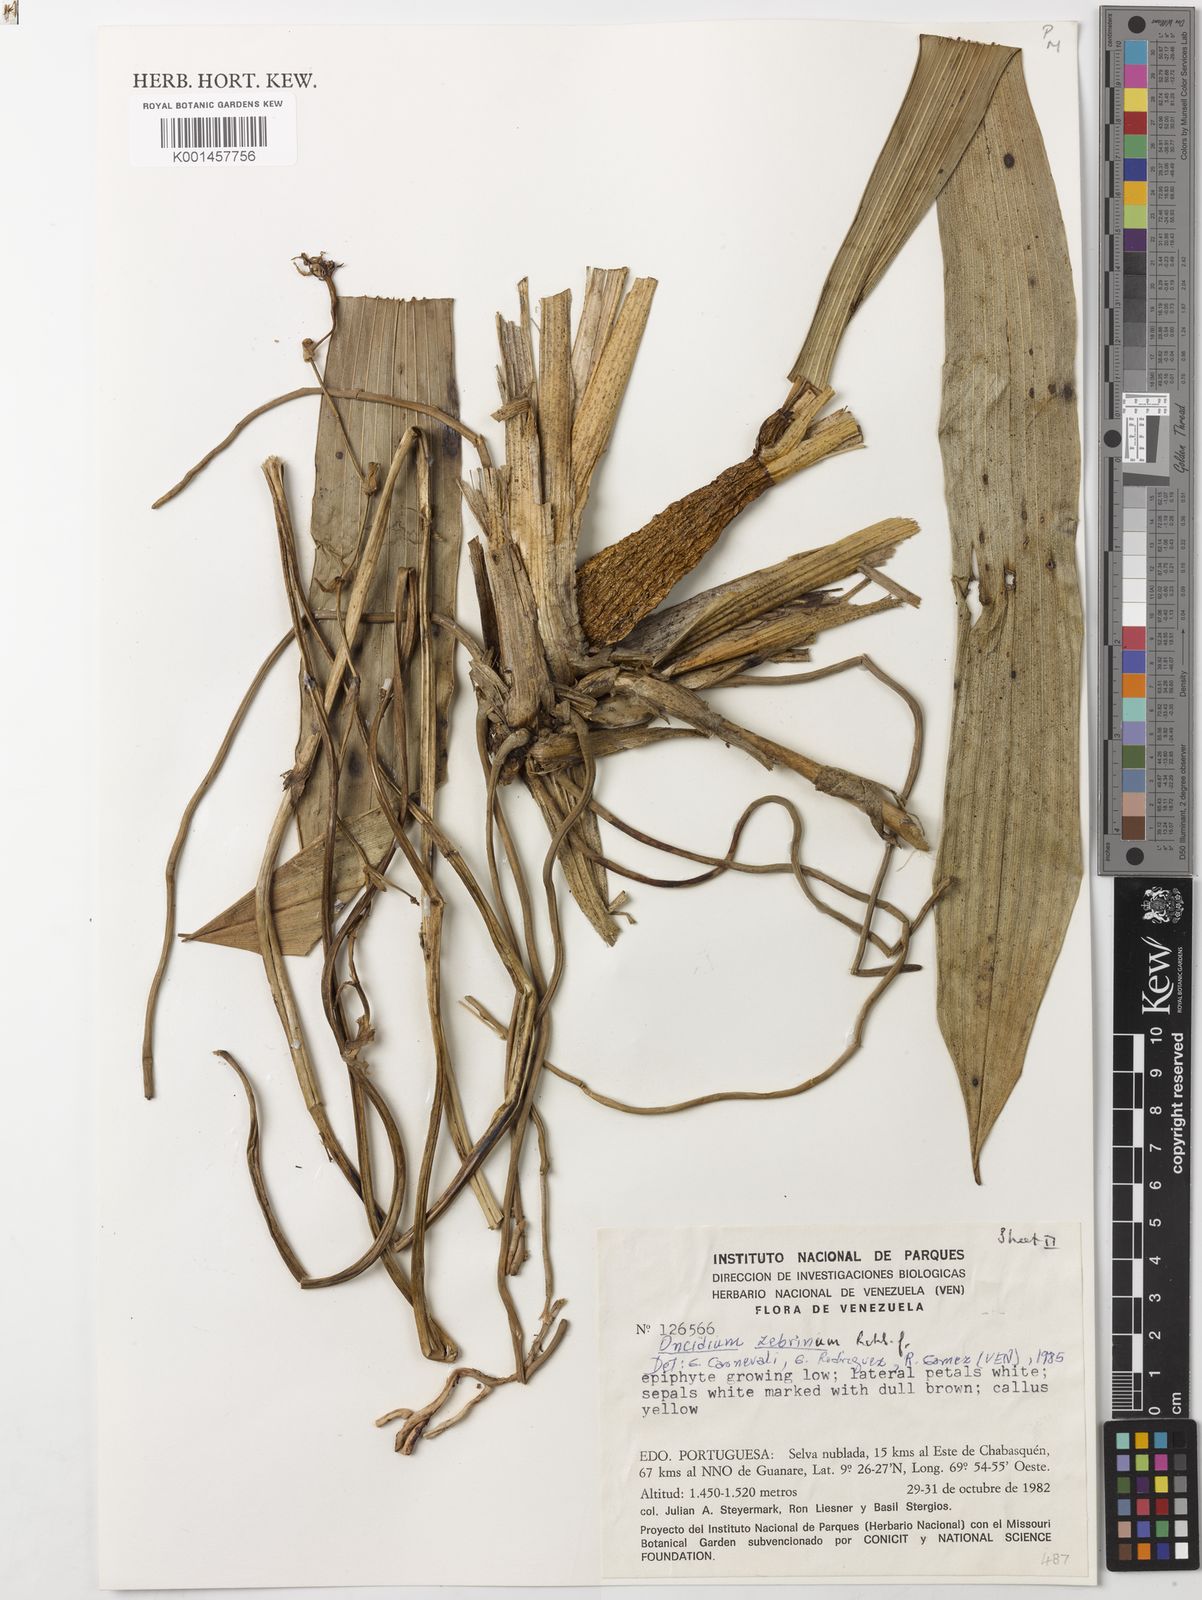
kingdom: Plantae
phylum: Tracheophyta
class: Liliopsida
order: Asparagales
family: Orchidaceae
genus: Cyrtochilum
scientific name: Cyrtochilum zebrinum
